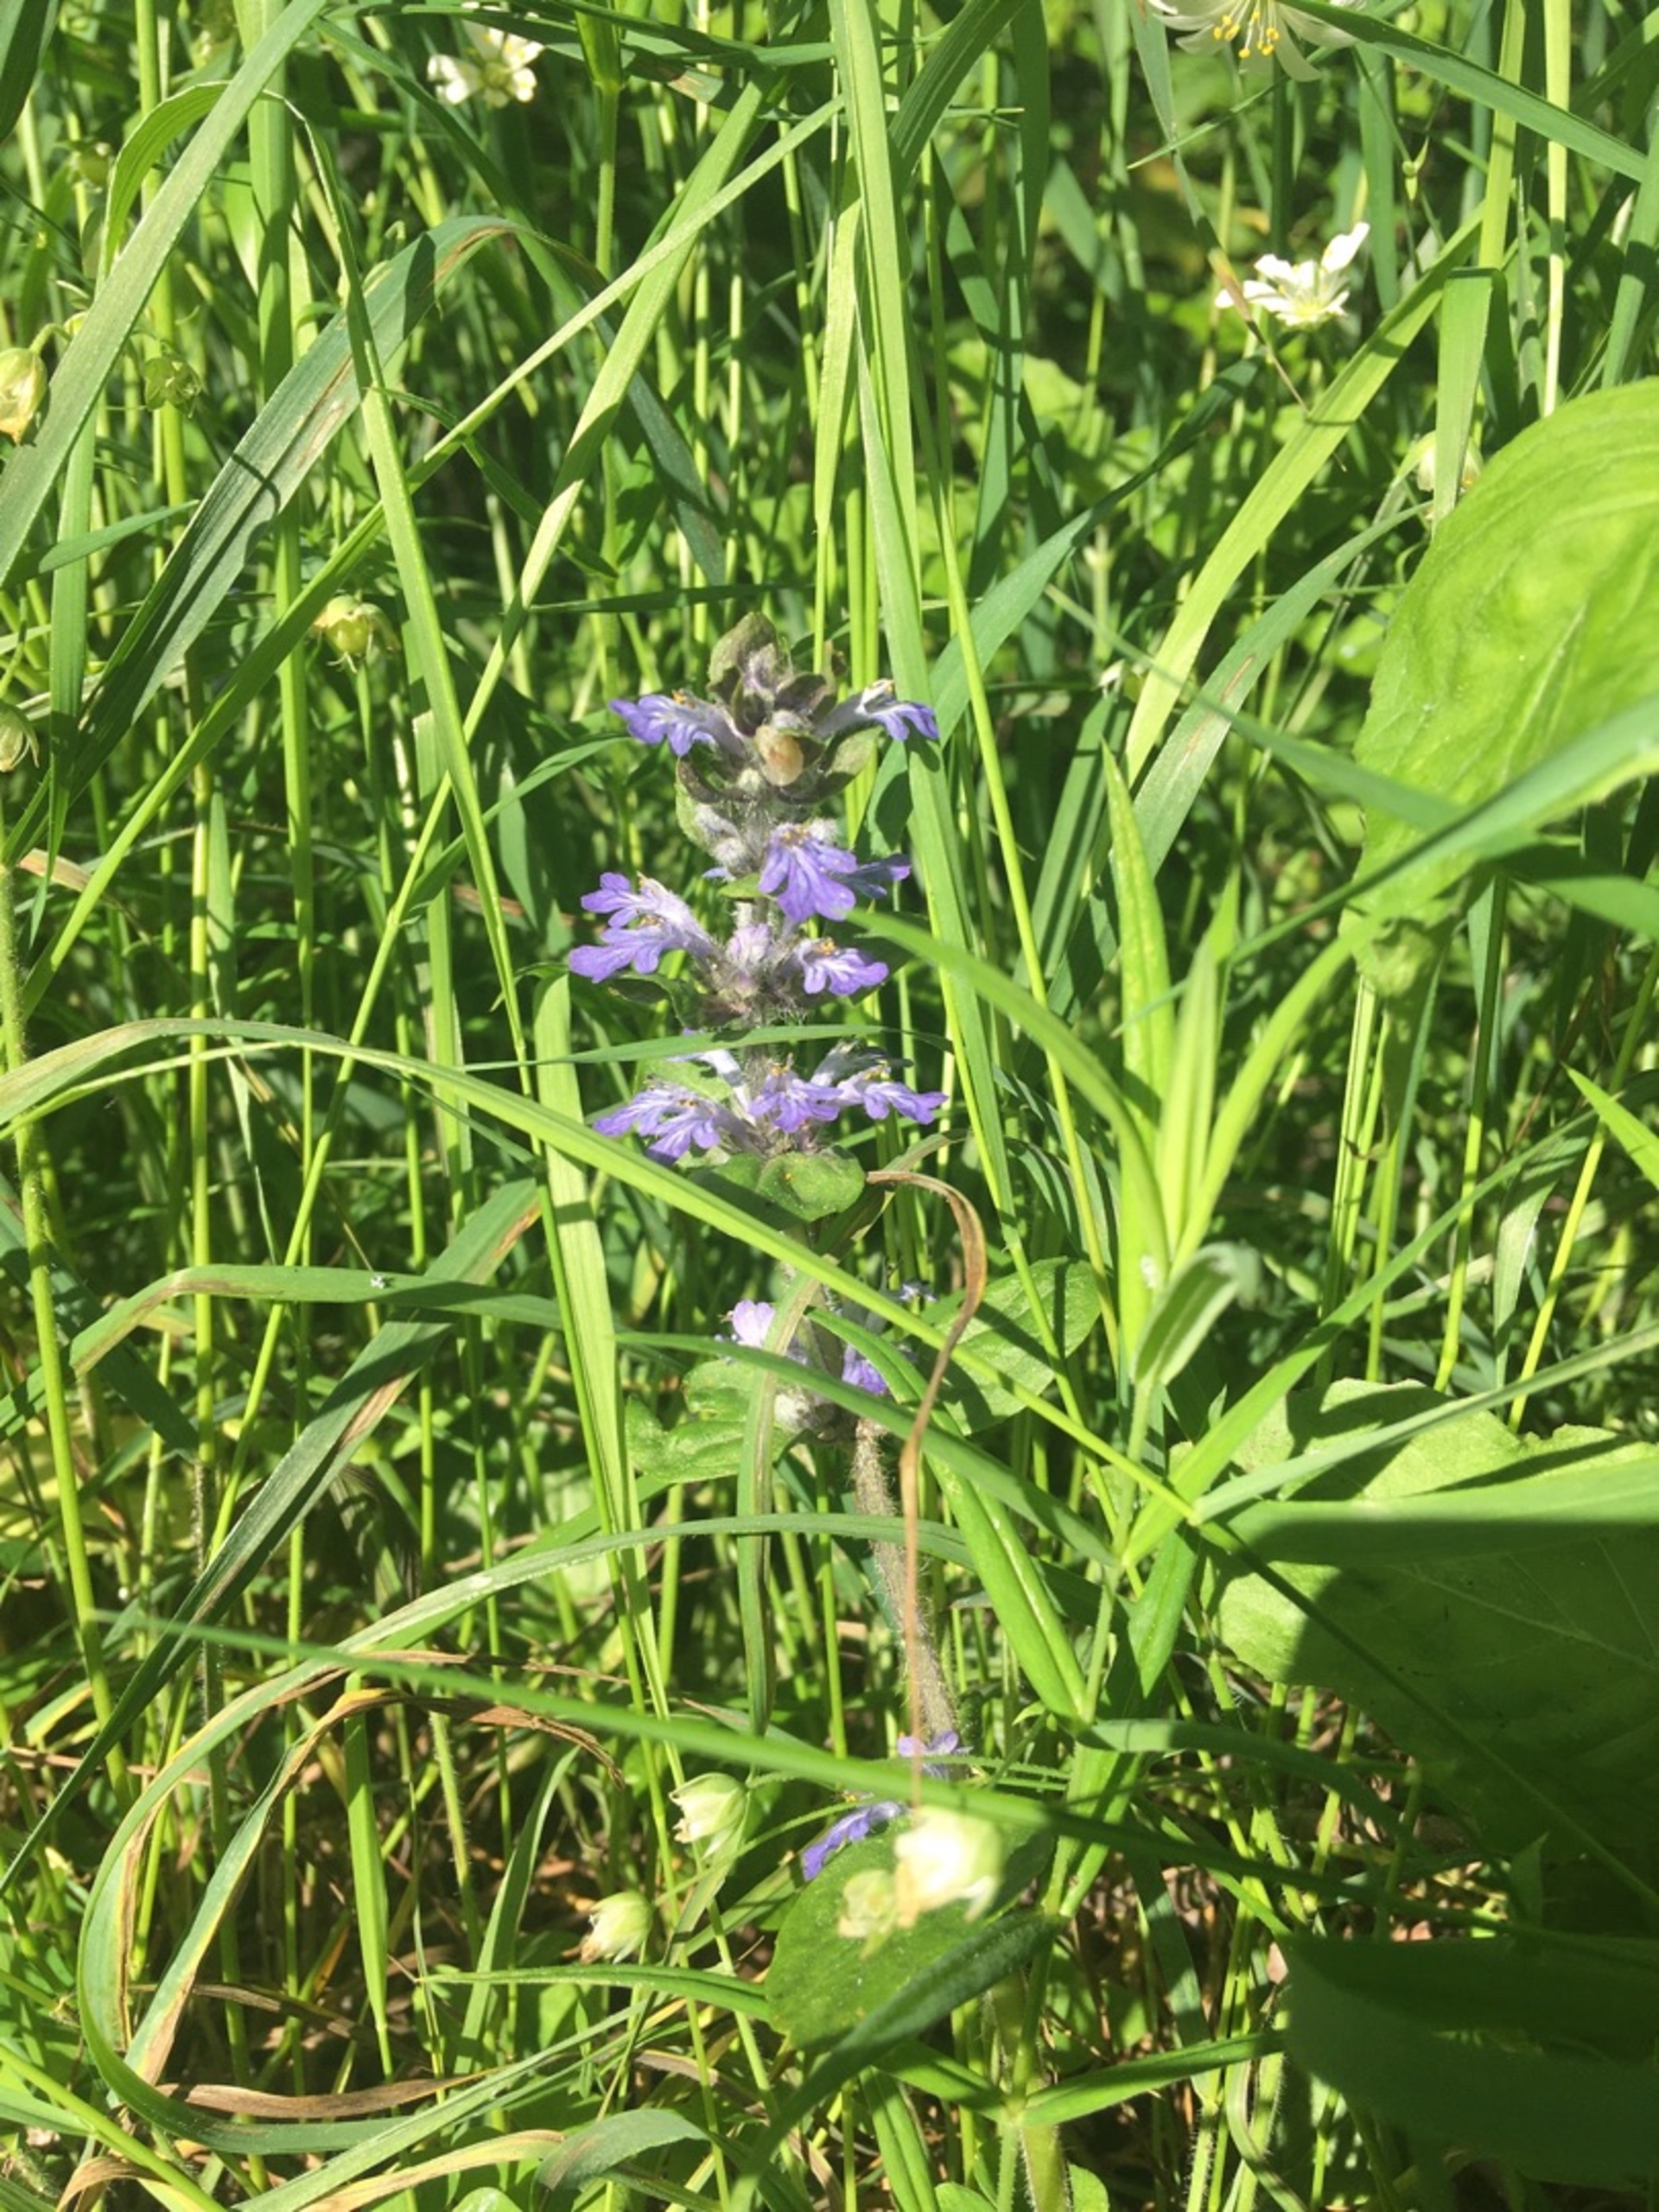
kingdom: Plantae
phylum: Tracheophyta
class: Magnoliopsida
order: Lamiales
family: Lamiaceae
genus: Ajuga
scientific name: Ajuga reptans
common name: Krybende læbeløs
